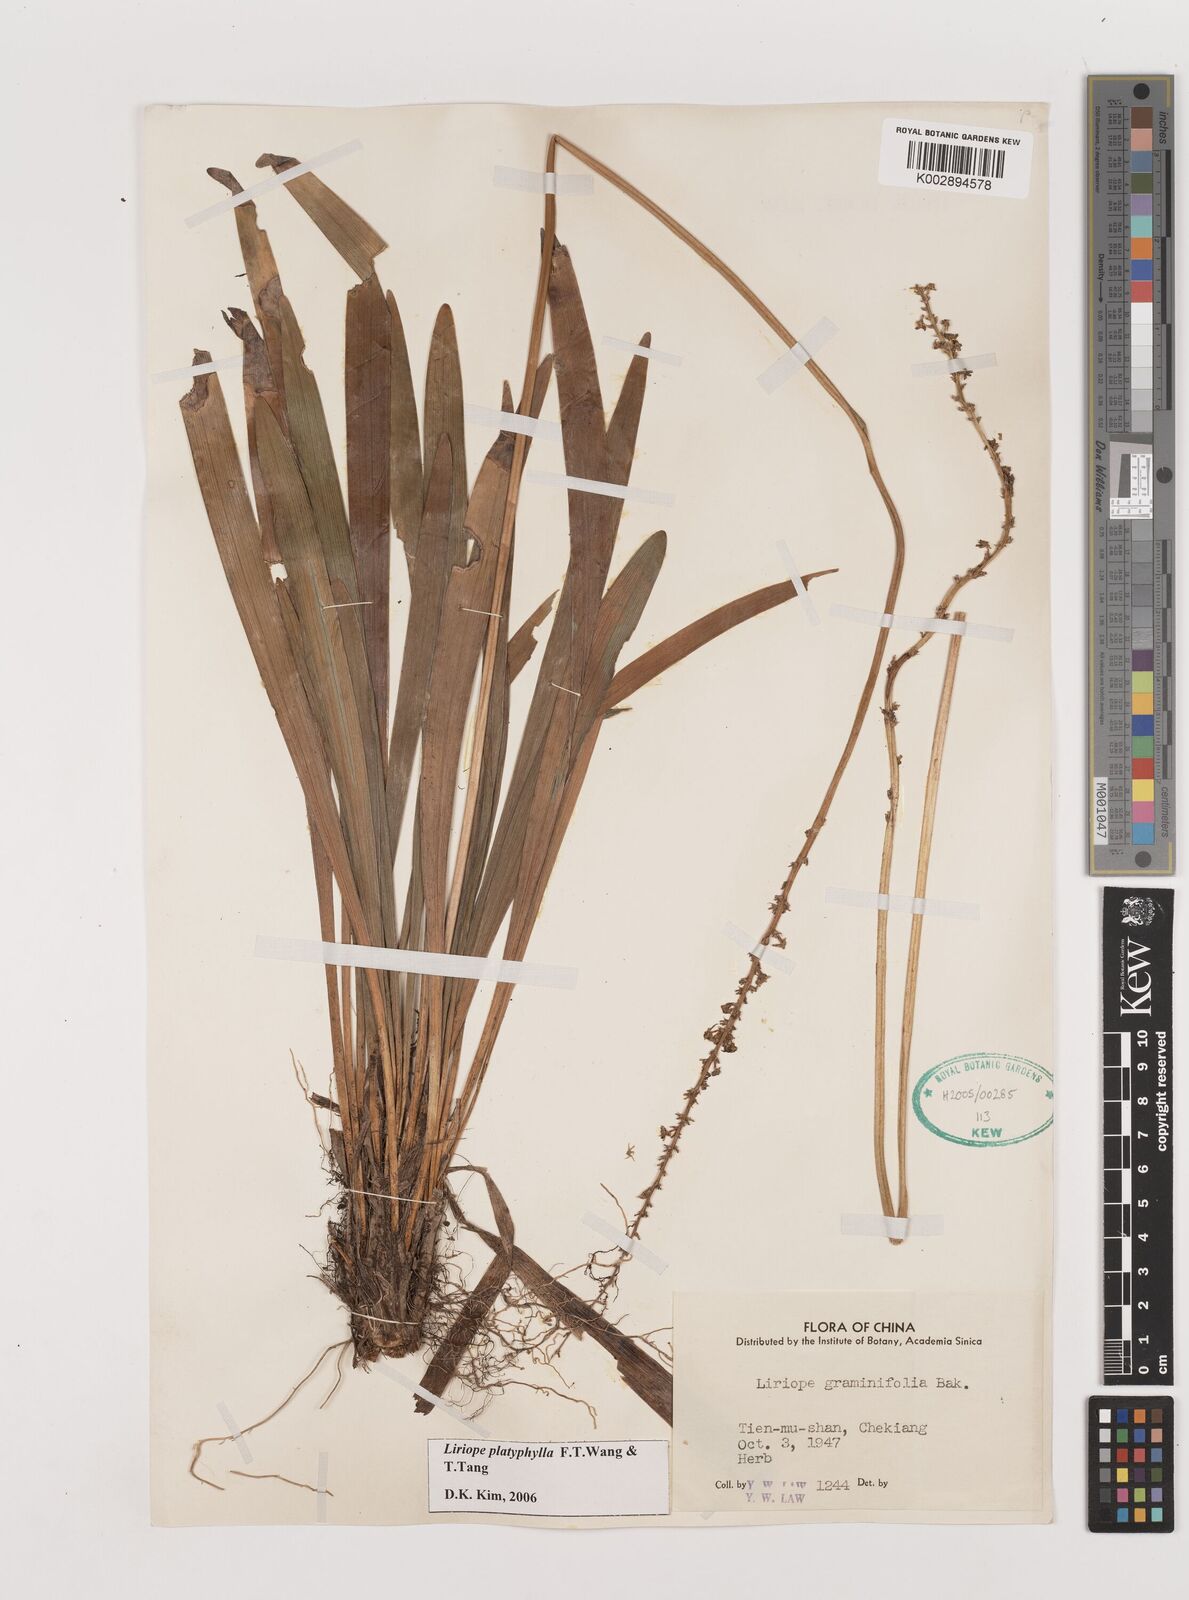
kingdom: Plantae
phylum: Tracheophyta
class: Liliopsida
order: Asparagales
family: Asparagaceae
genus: Liriope
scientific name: Liriope muscari
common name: Big blue lilyturf
